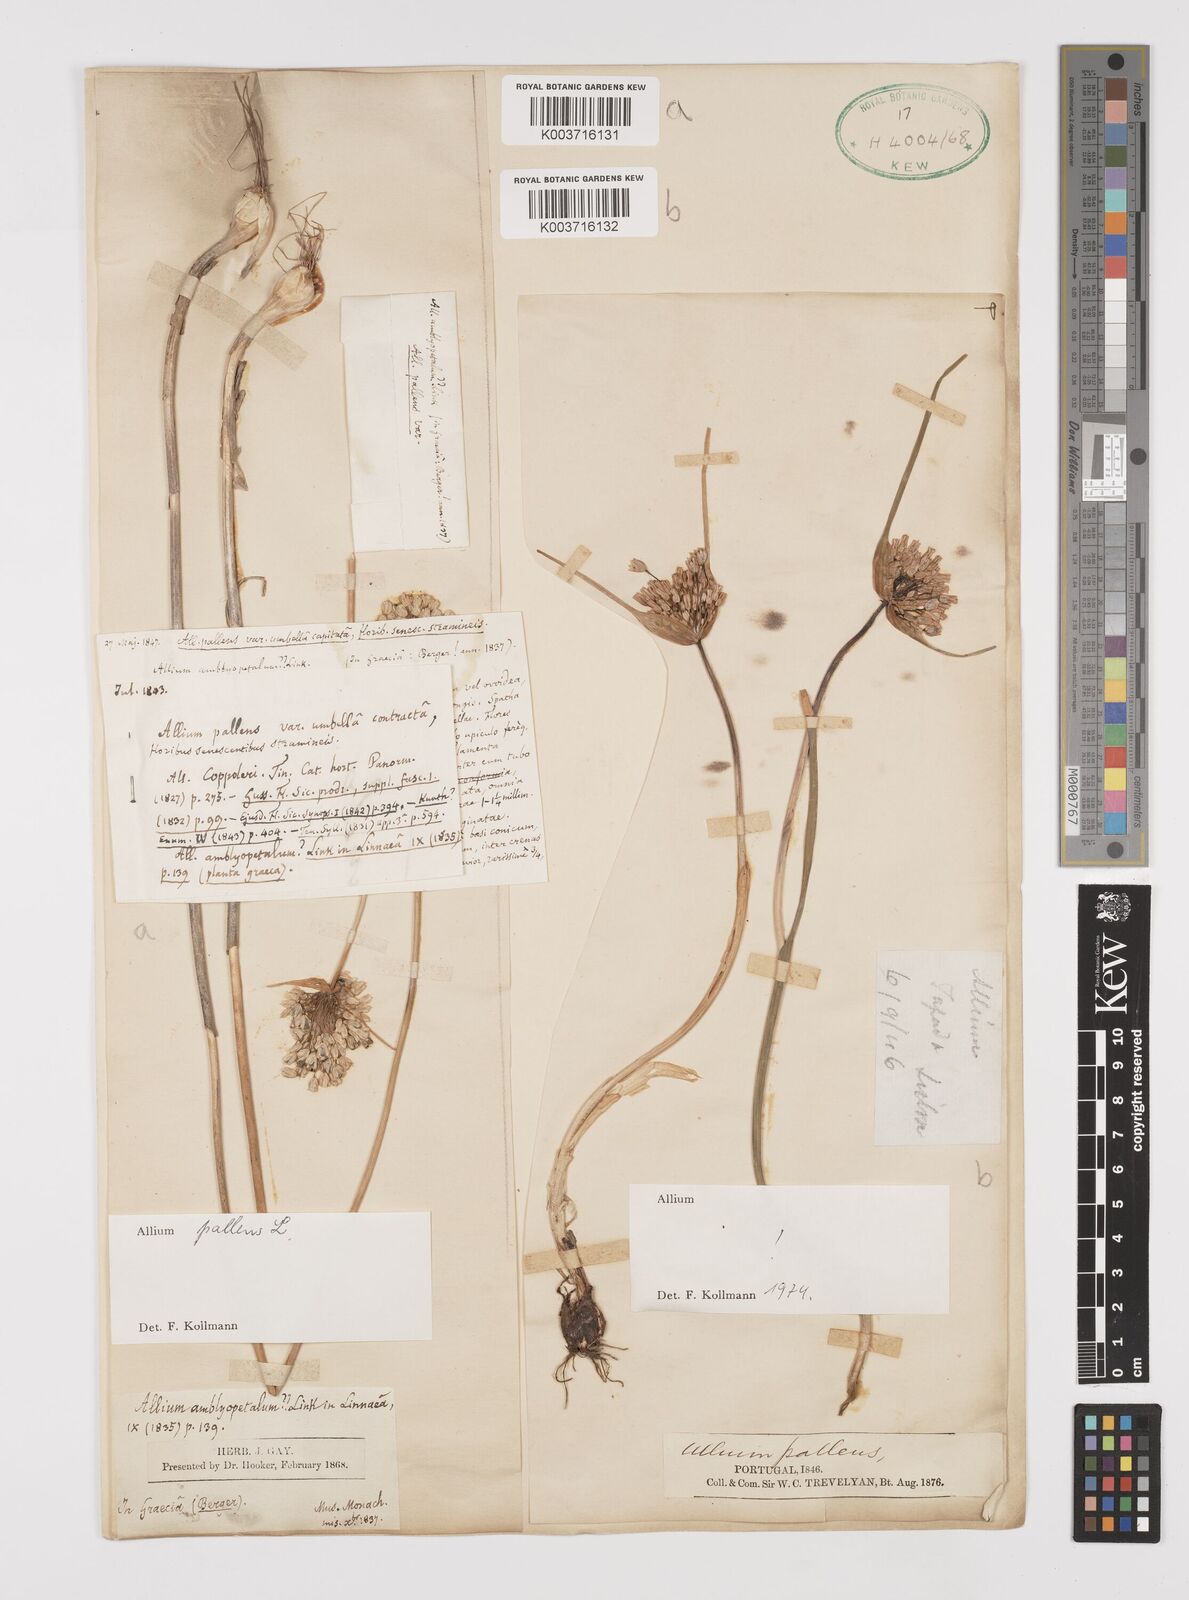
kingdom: Plantae
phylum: Tracheophyta
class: Liliopsida
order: Asparagales
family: Amaryllidaceae
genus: Allium
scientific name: Allium pallens
